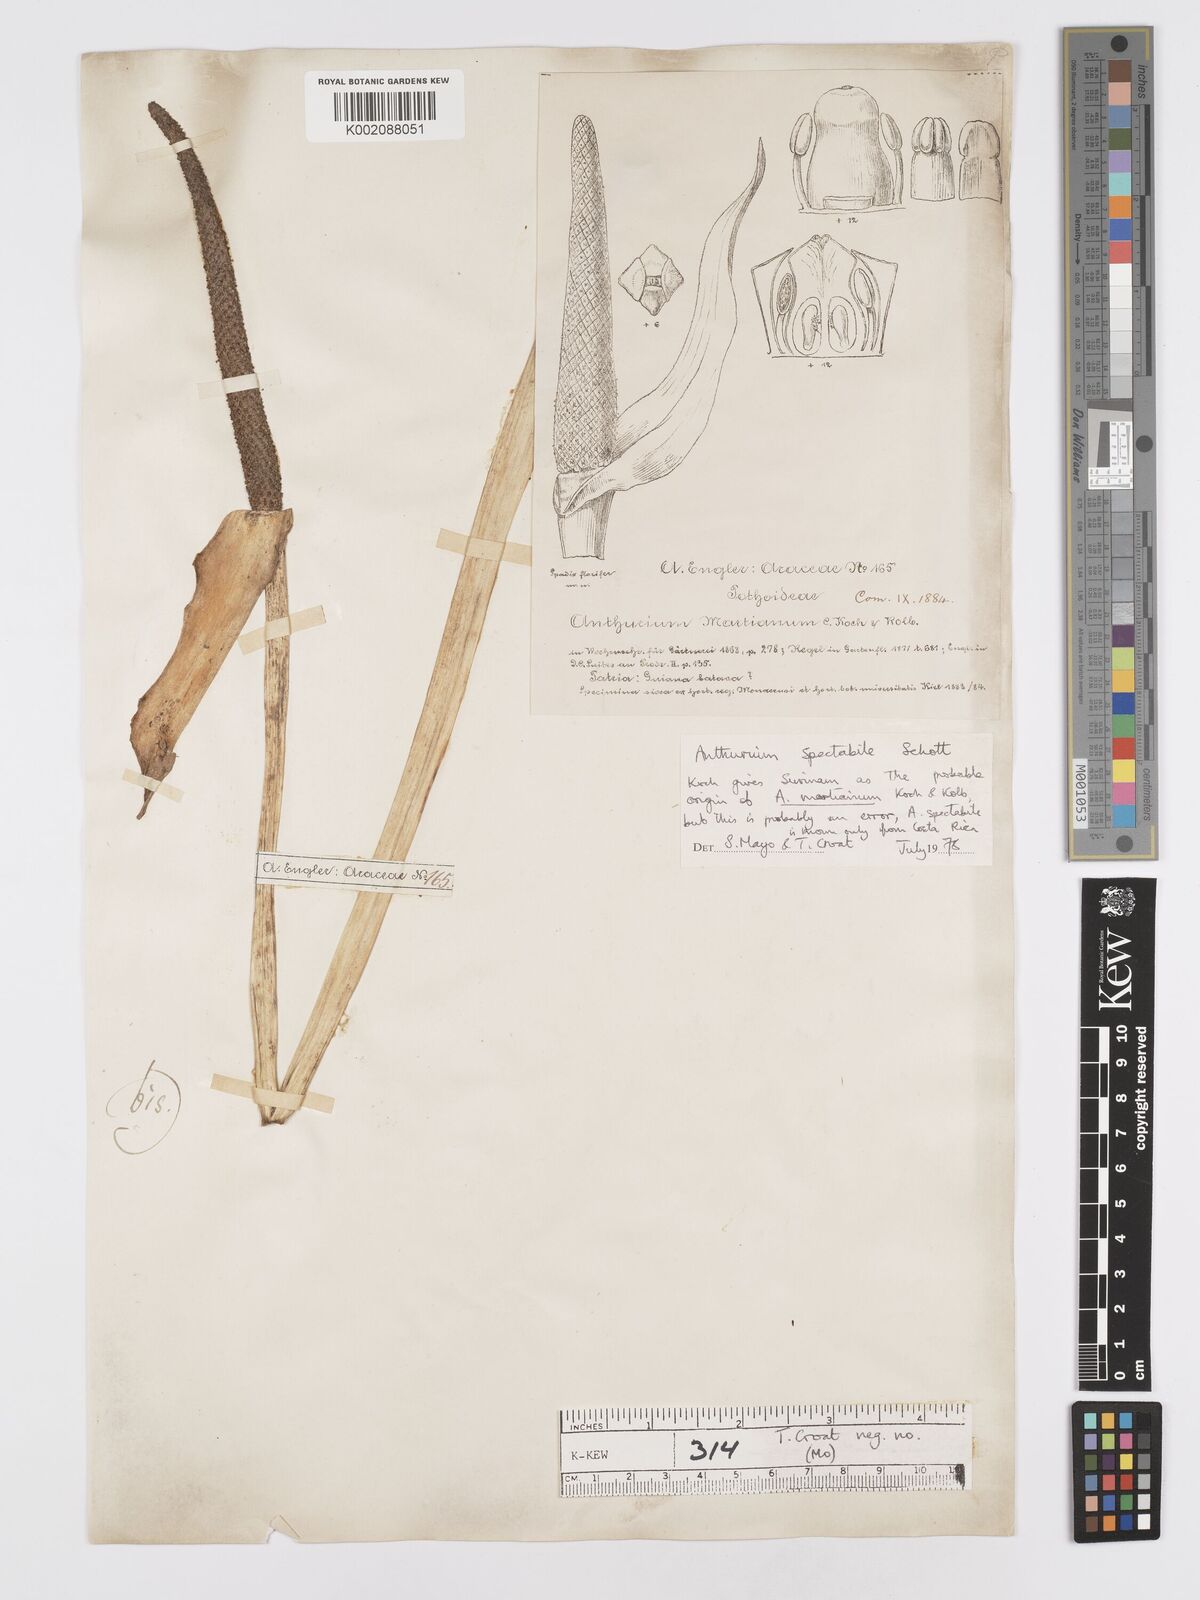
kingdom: Plantae
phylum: Tracheophyta
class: Liliopsida
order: Alismatales
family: Araceae
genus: Anthurium
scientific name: Anthurium spectabile
